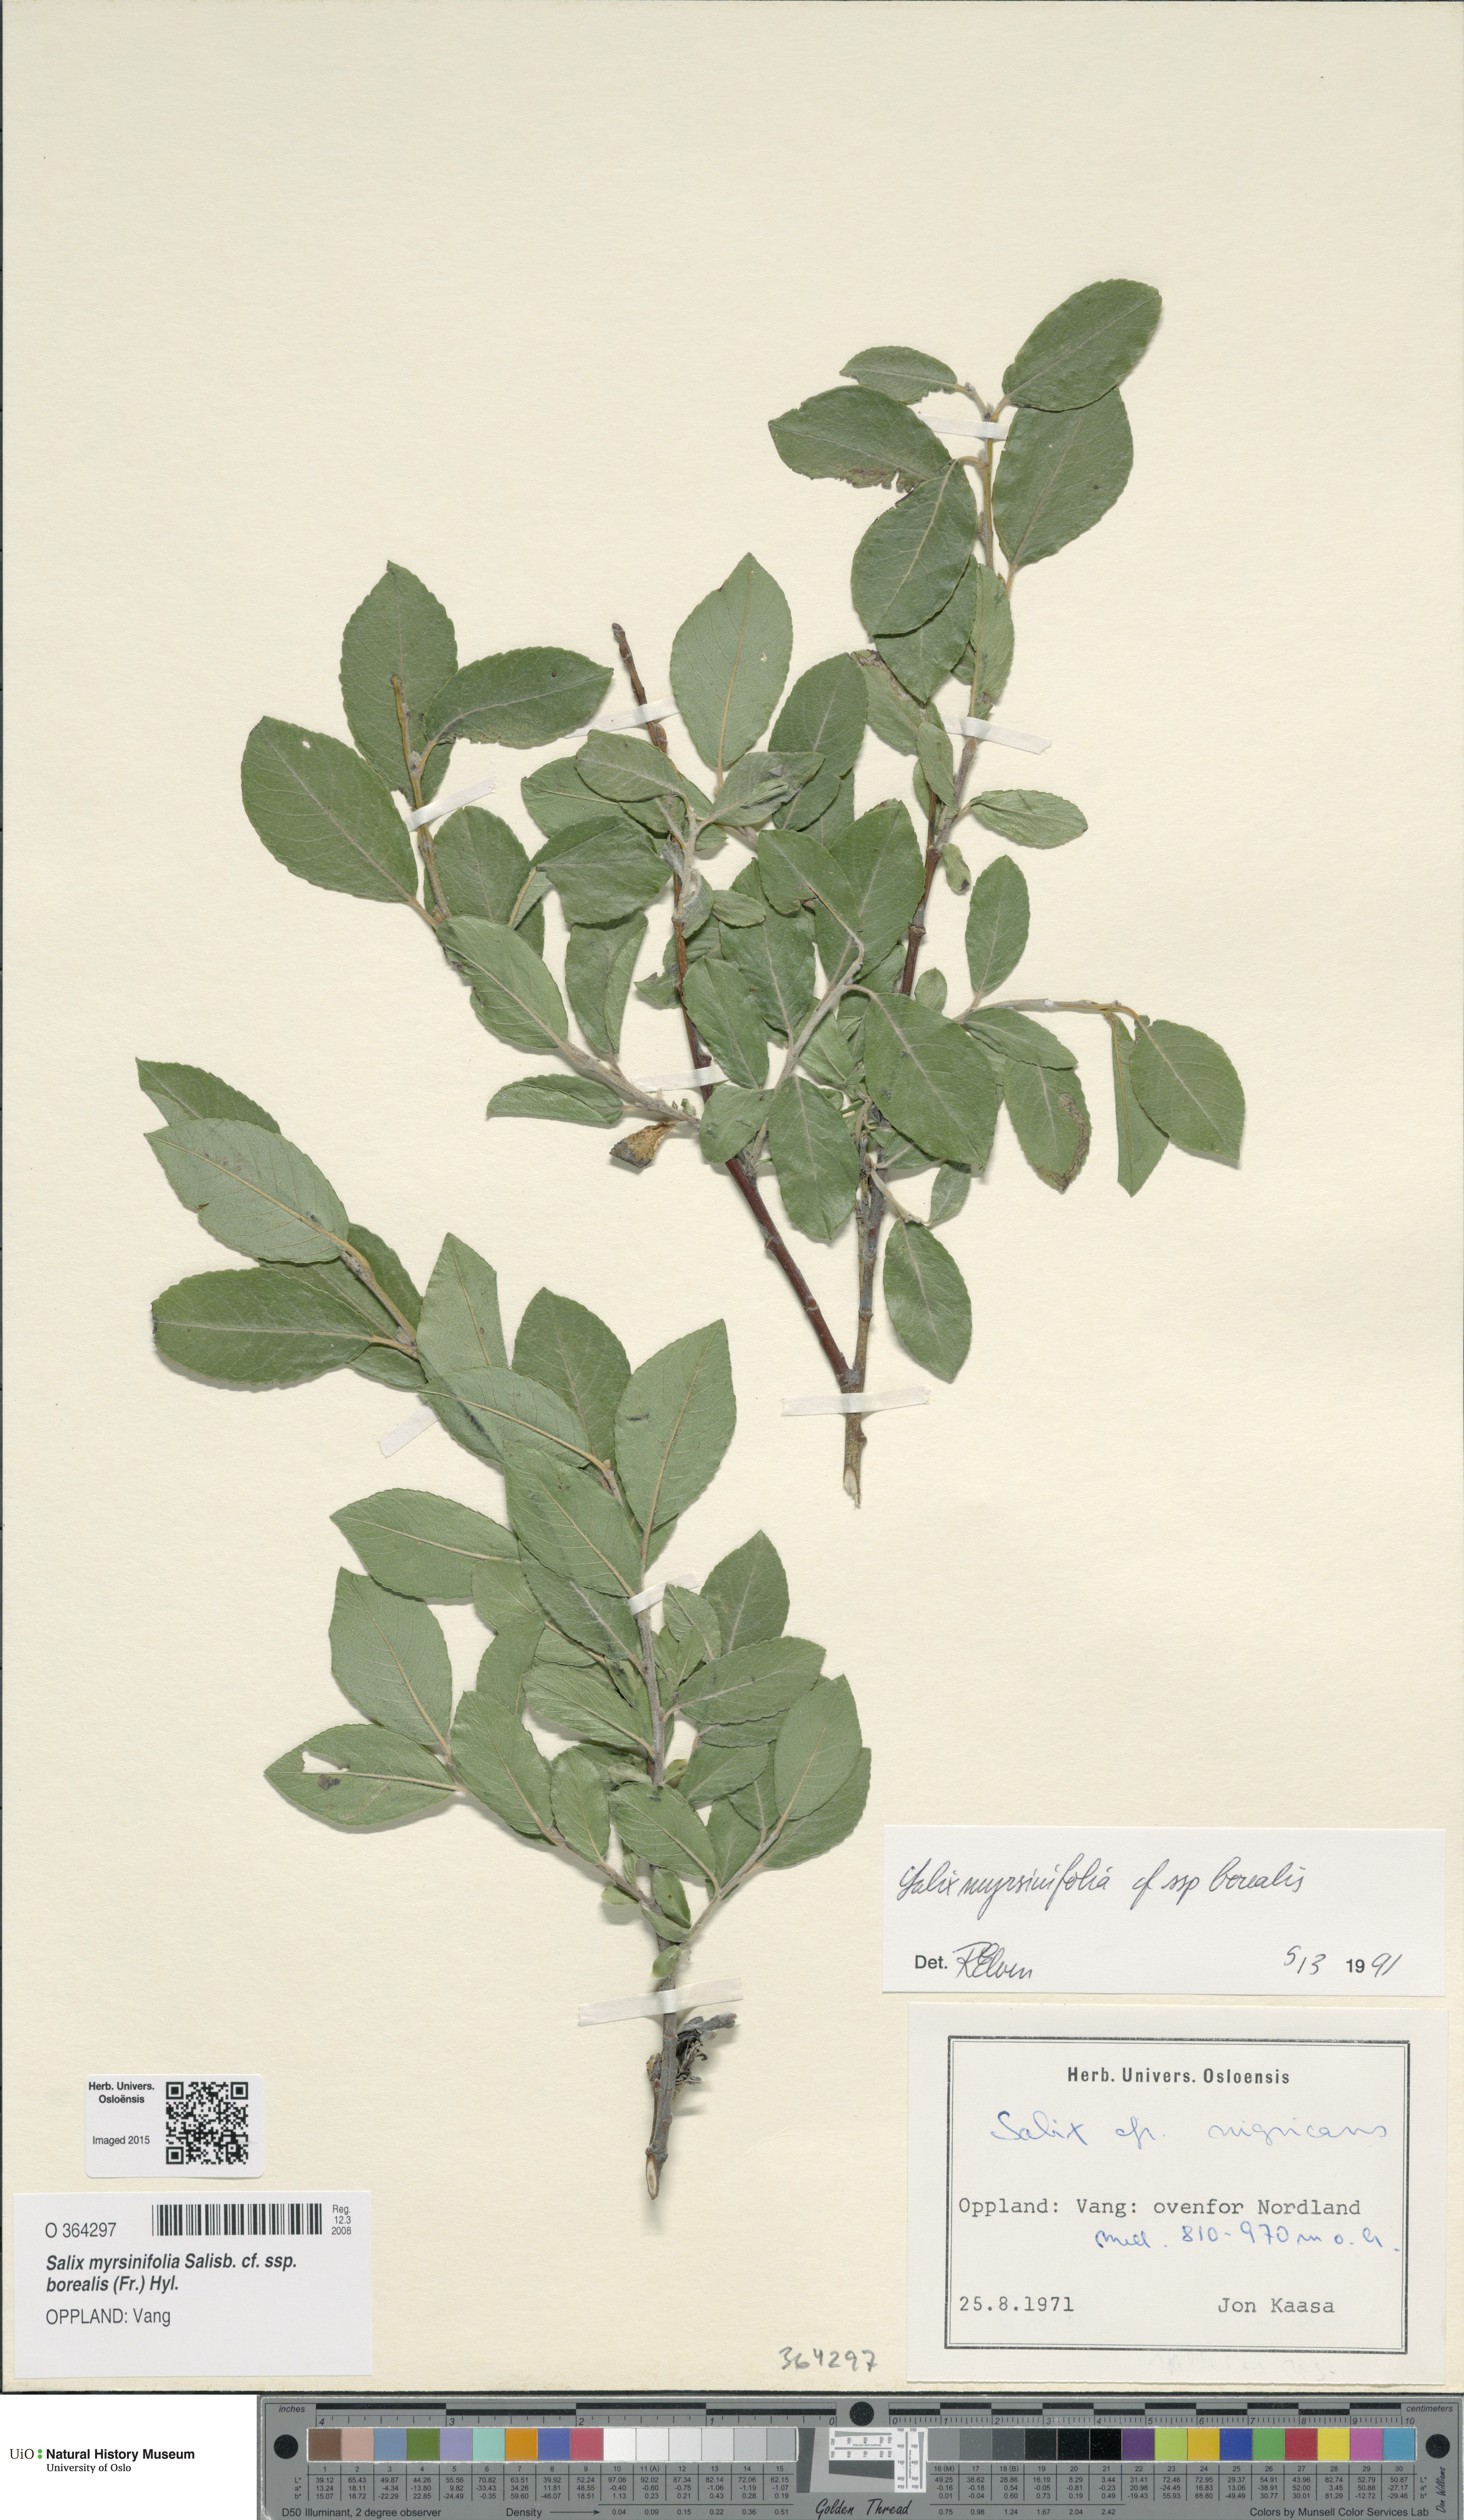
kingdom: Plantae
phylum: Tracheophyta
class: Magnoliopsida
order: Malpighiales
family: Salicaceae
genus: Salix
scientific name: Salix myrsinifolia
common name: Dark-leaved willow
